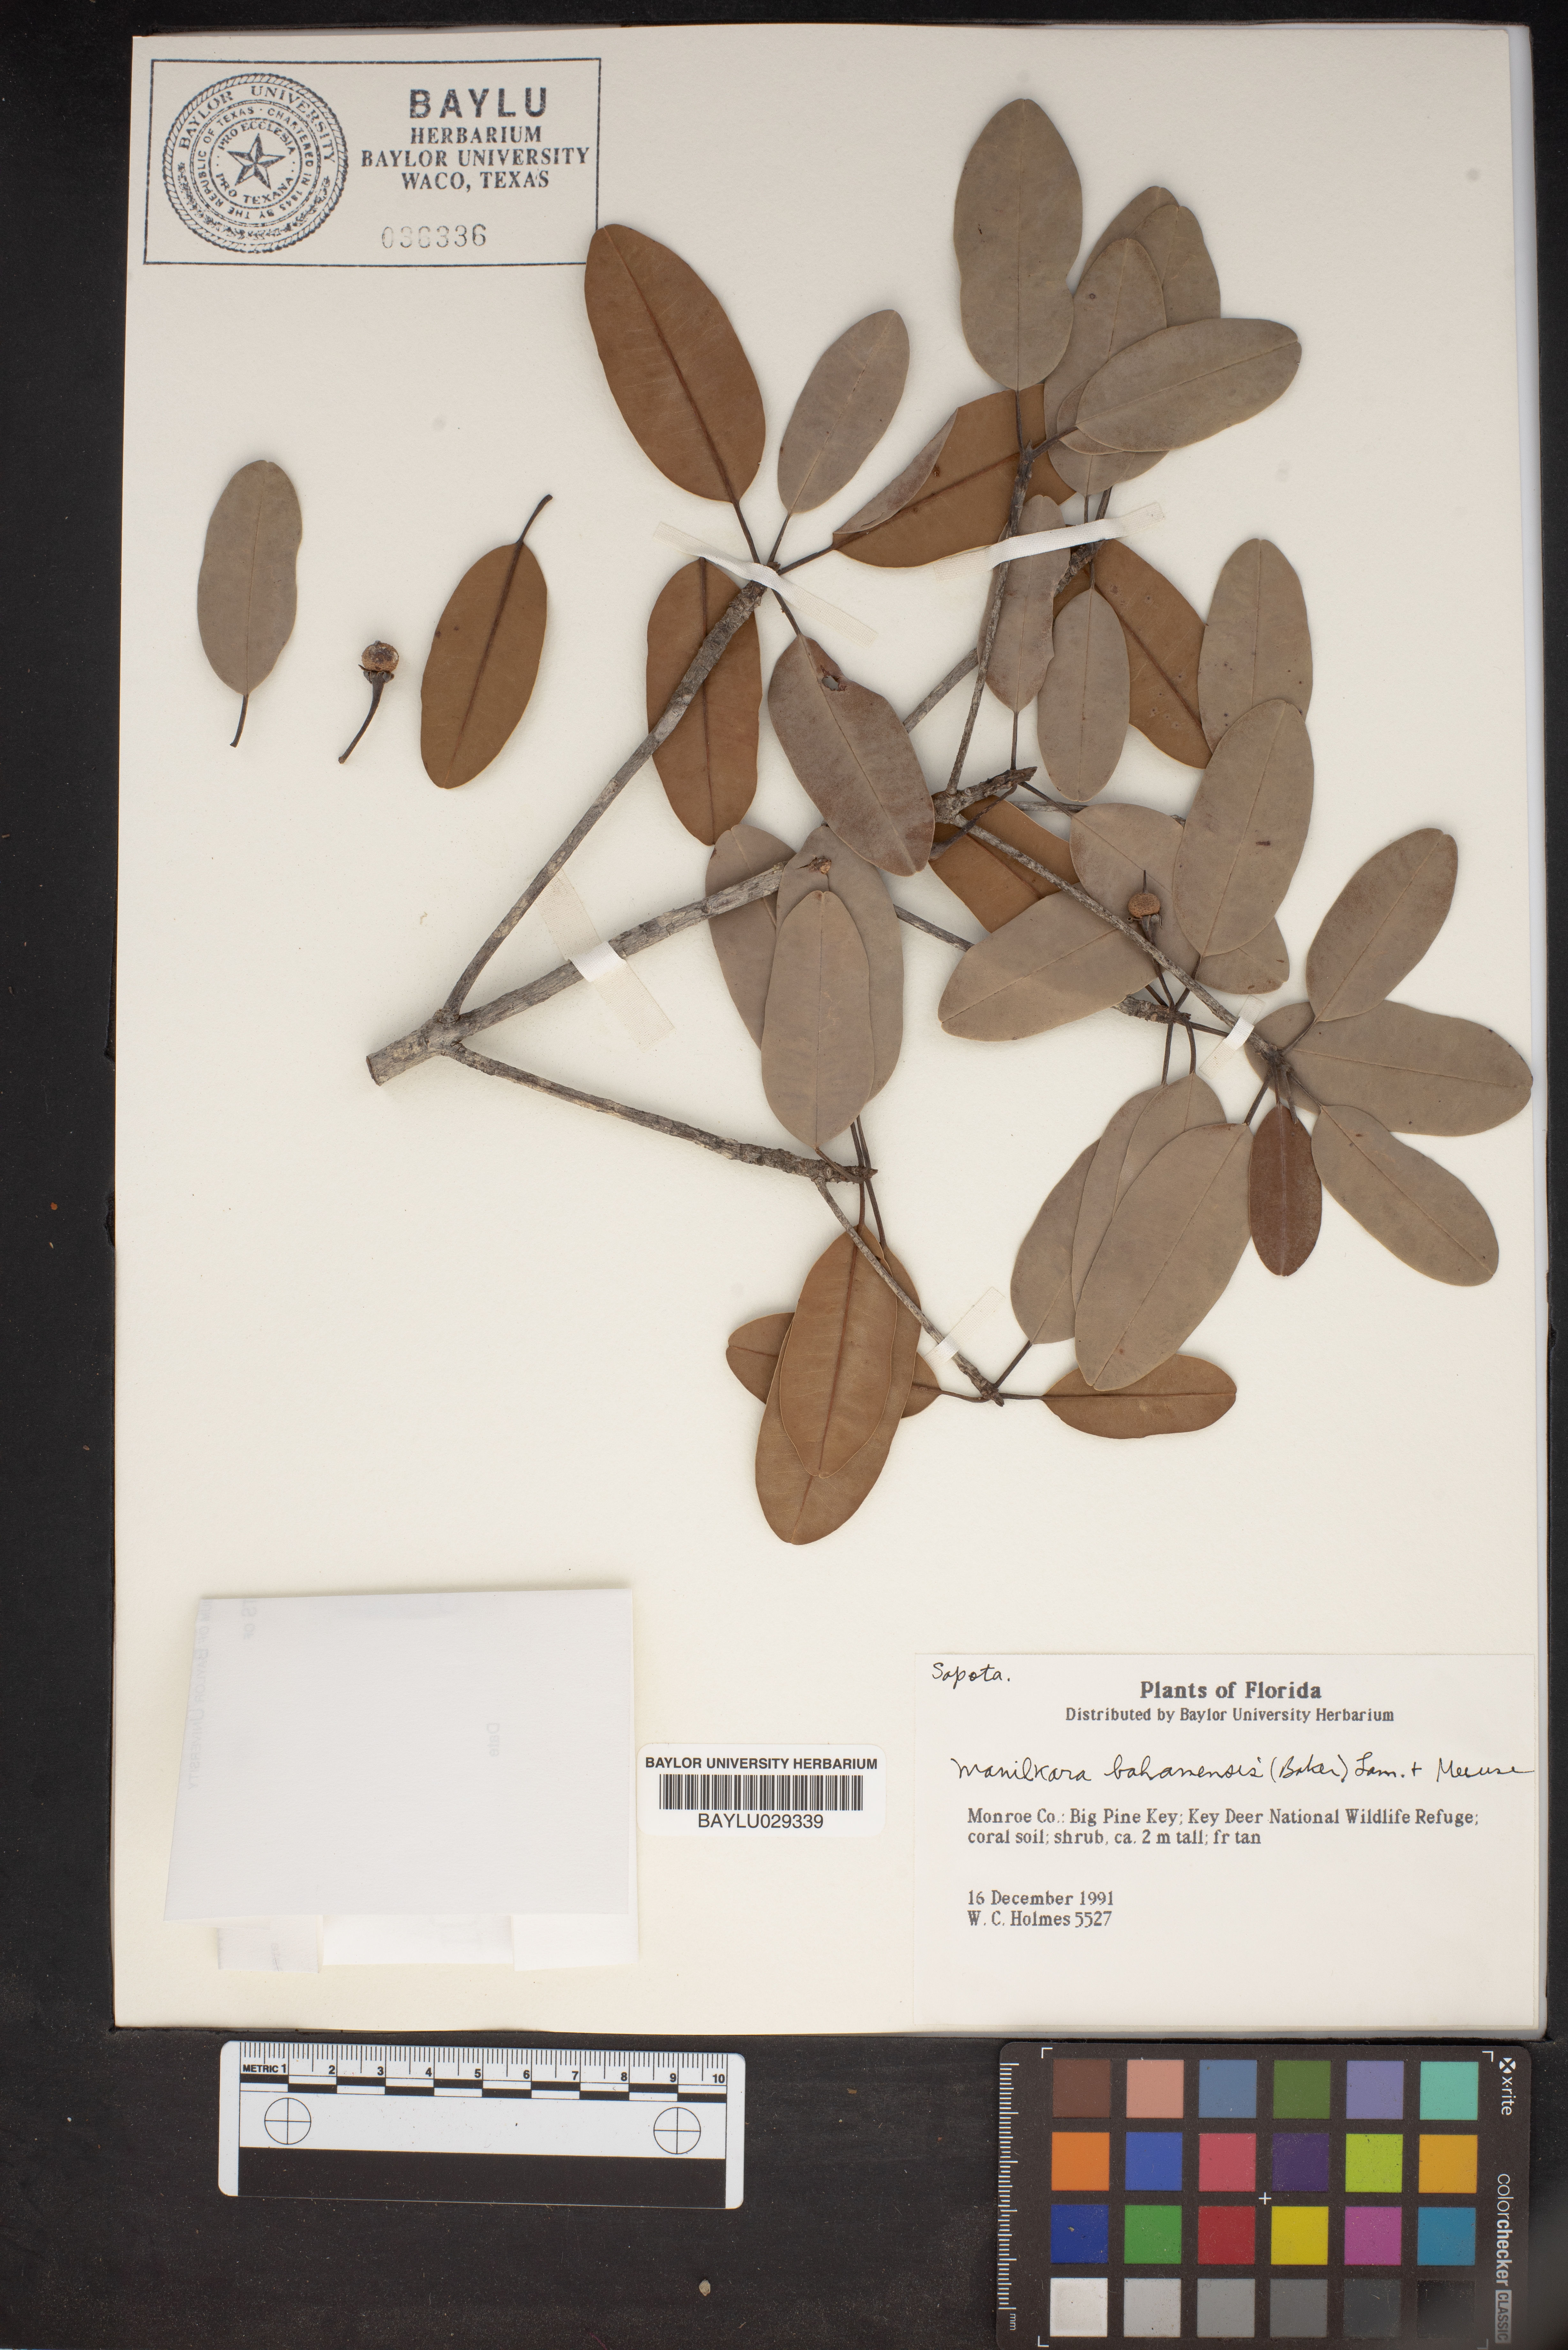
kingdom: Plantae
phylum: Tracheophyta
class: Magnoliopsida
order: Ericales
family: Sapotaceae
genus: Manilkara
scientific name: Manilkara jaimiqui
